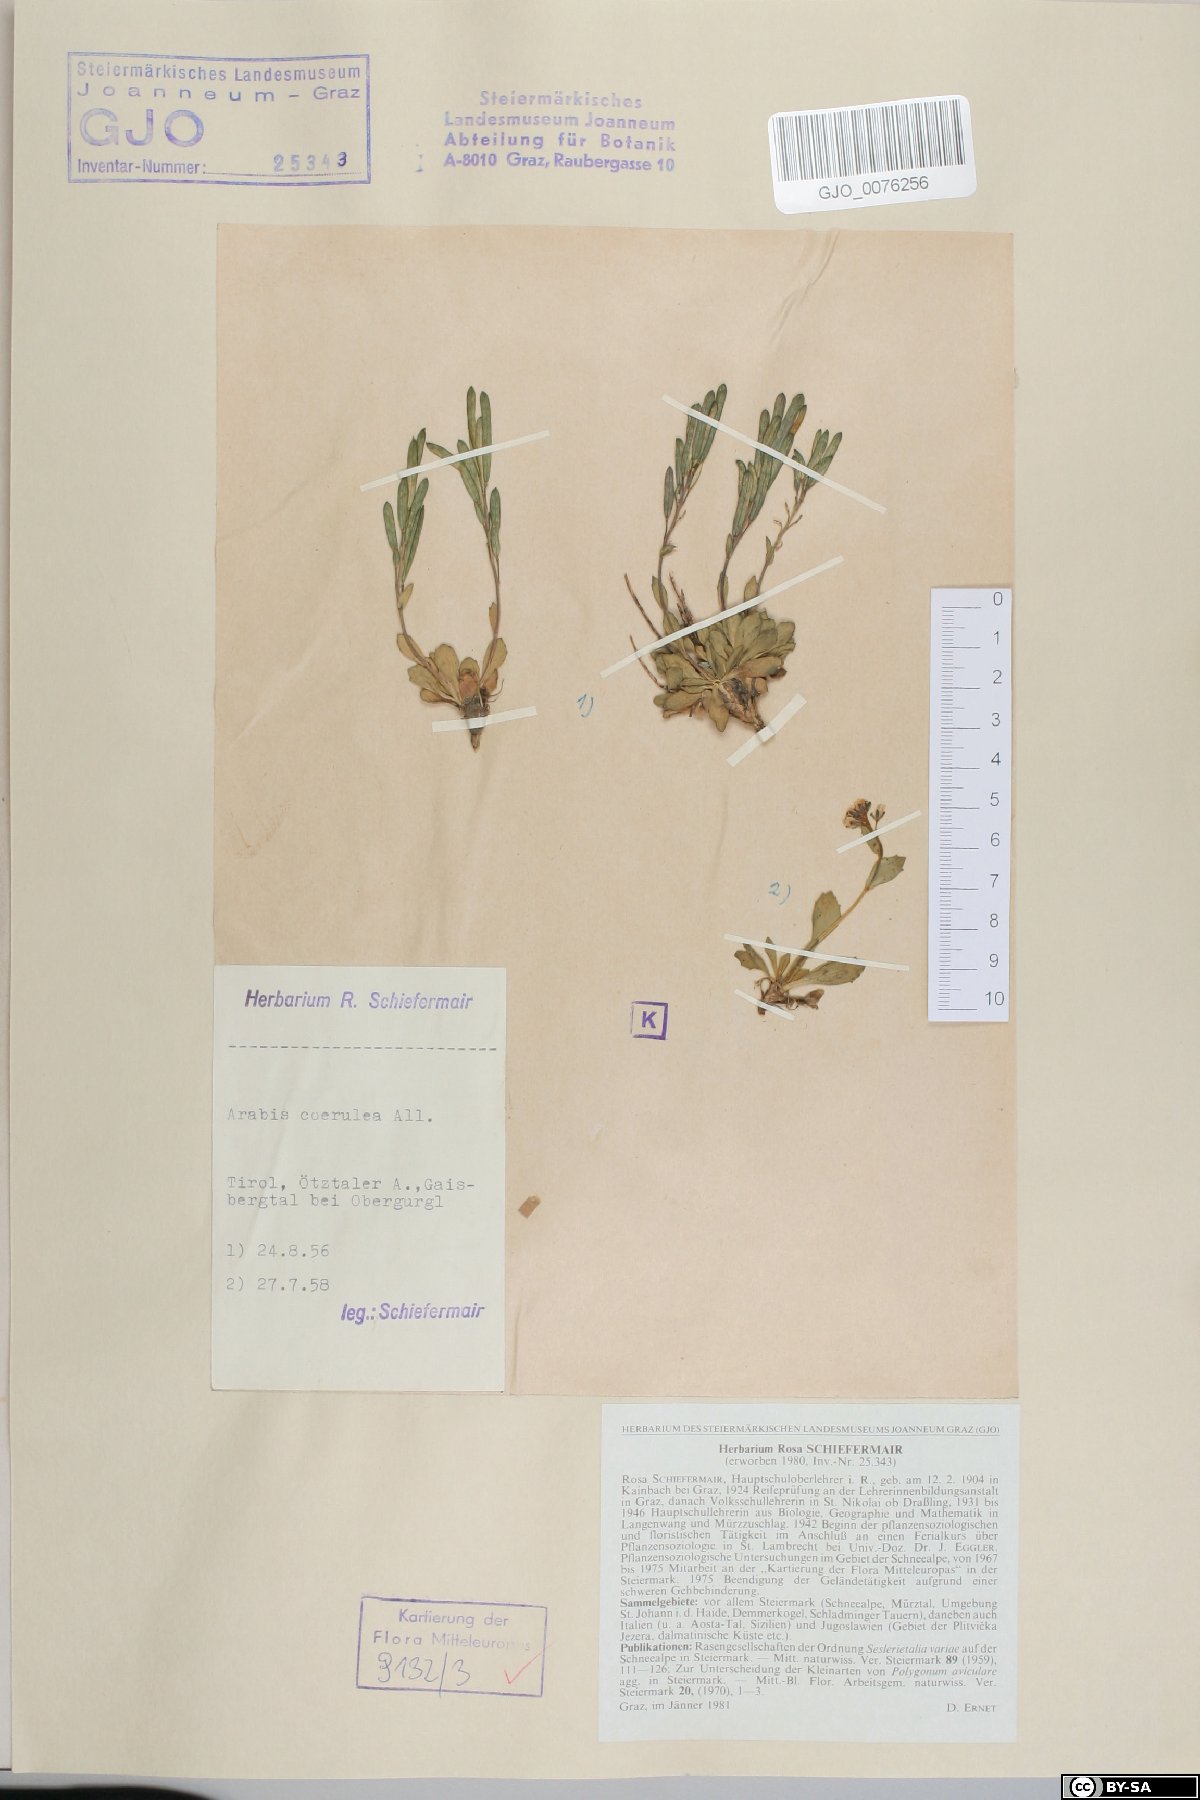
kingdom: Plantae
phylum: Tracheophyta
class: Magnoliopsida
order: Brassicales
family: Brassicaceae
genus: Arabis
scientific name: Arabis caerulea
